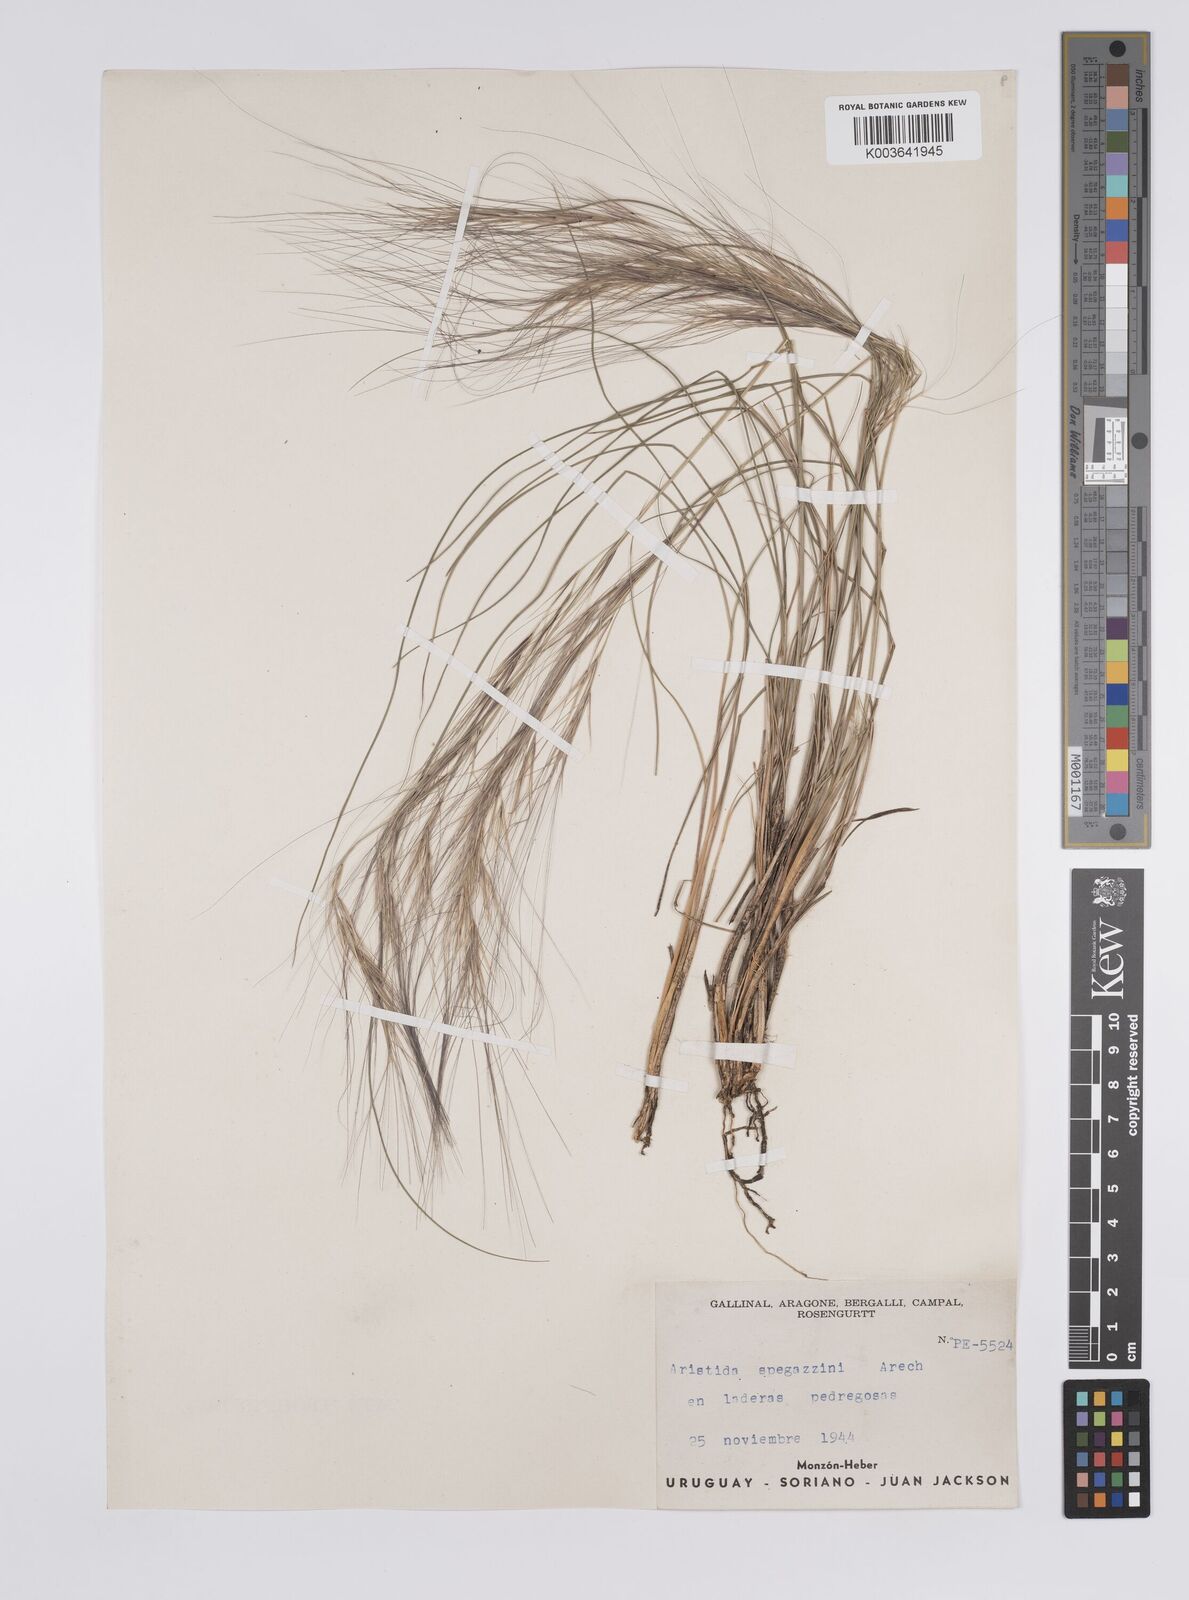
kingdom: Plantae
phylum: Tracheophyta
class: Liliopsida
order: Poales
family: Poaceae
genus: Aristida
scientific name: Aristida spegazzinii
